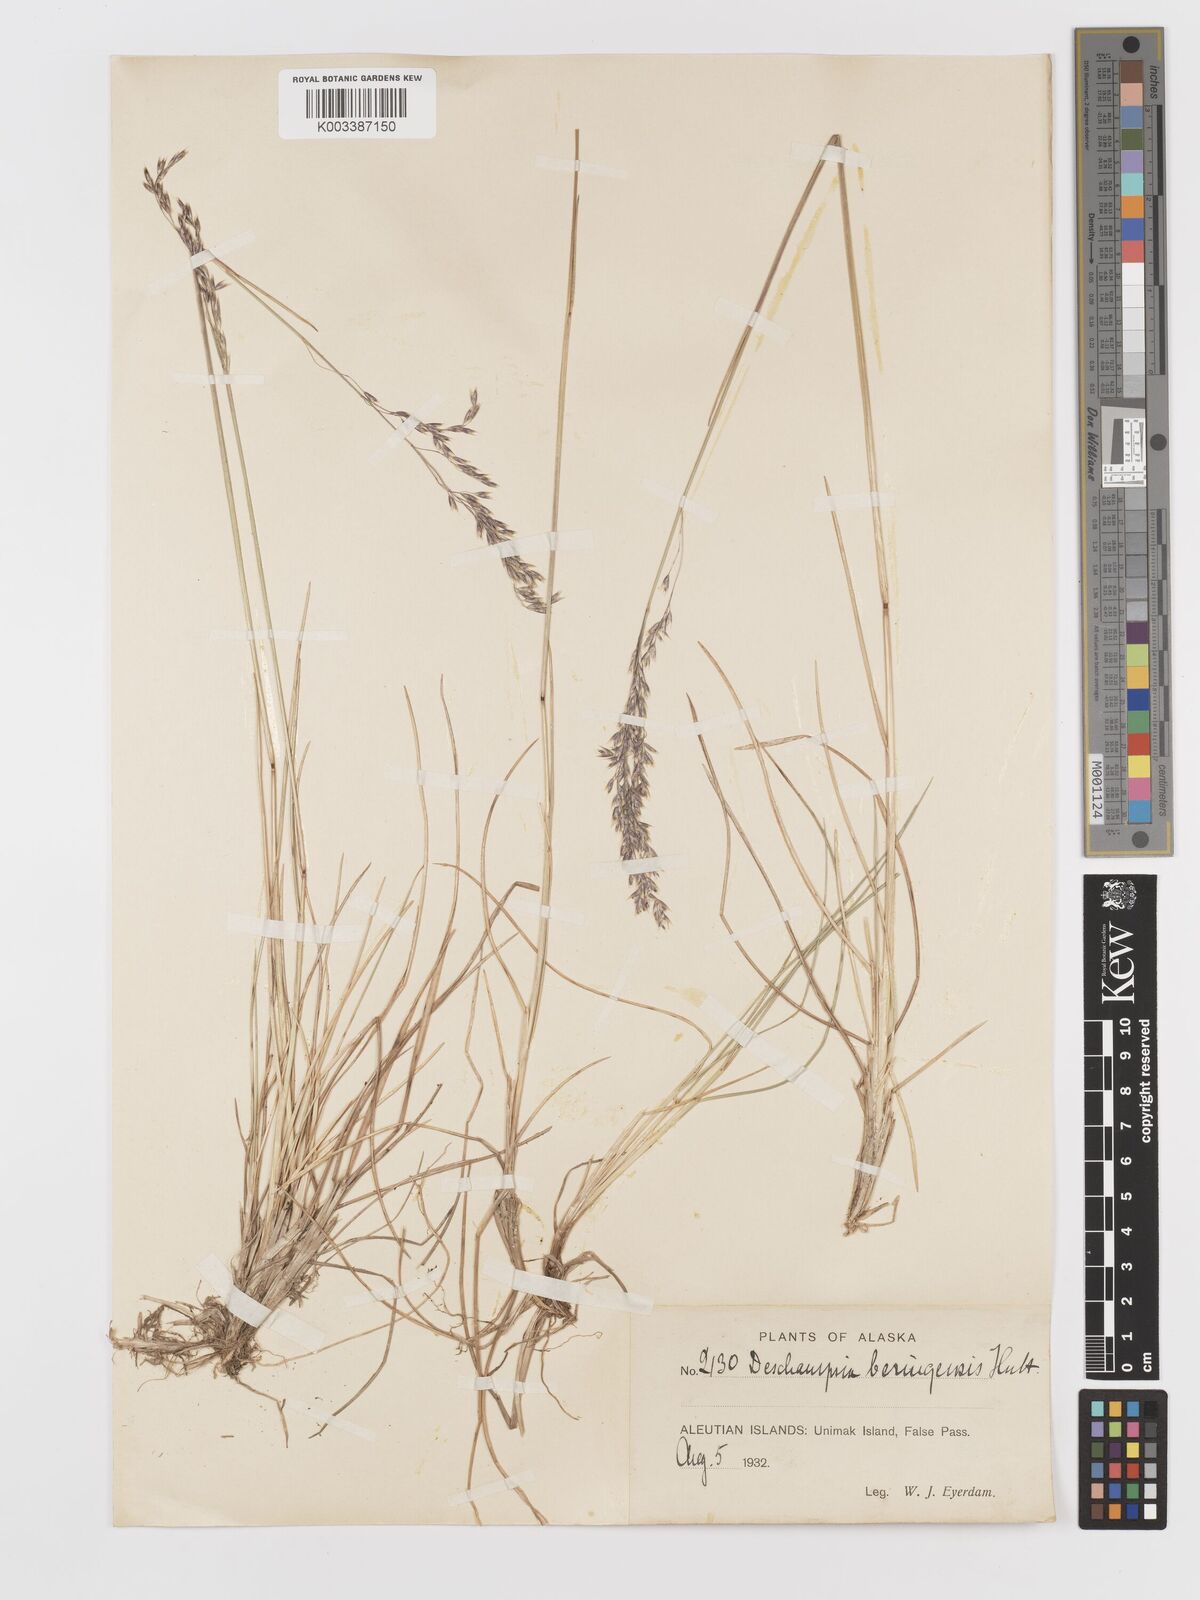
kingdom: Plantae
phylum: Tracheophyta
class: Liliopsida
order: Poales
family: Poaceae
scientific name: Poaceae
